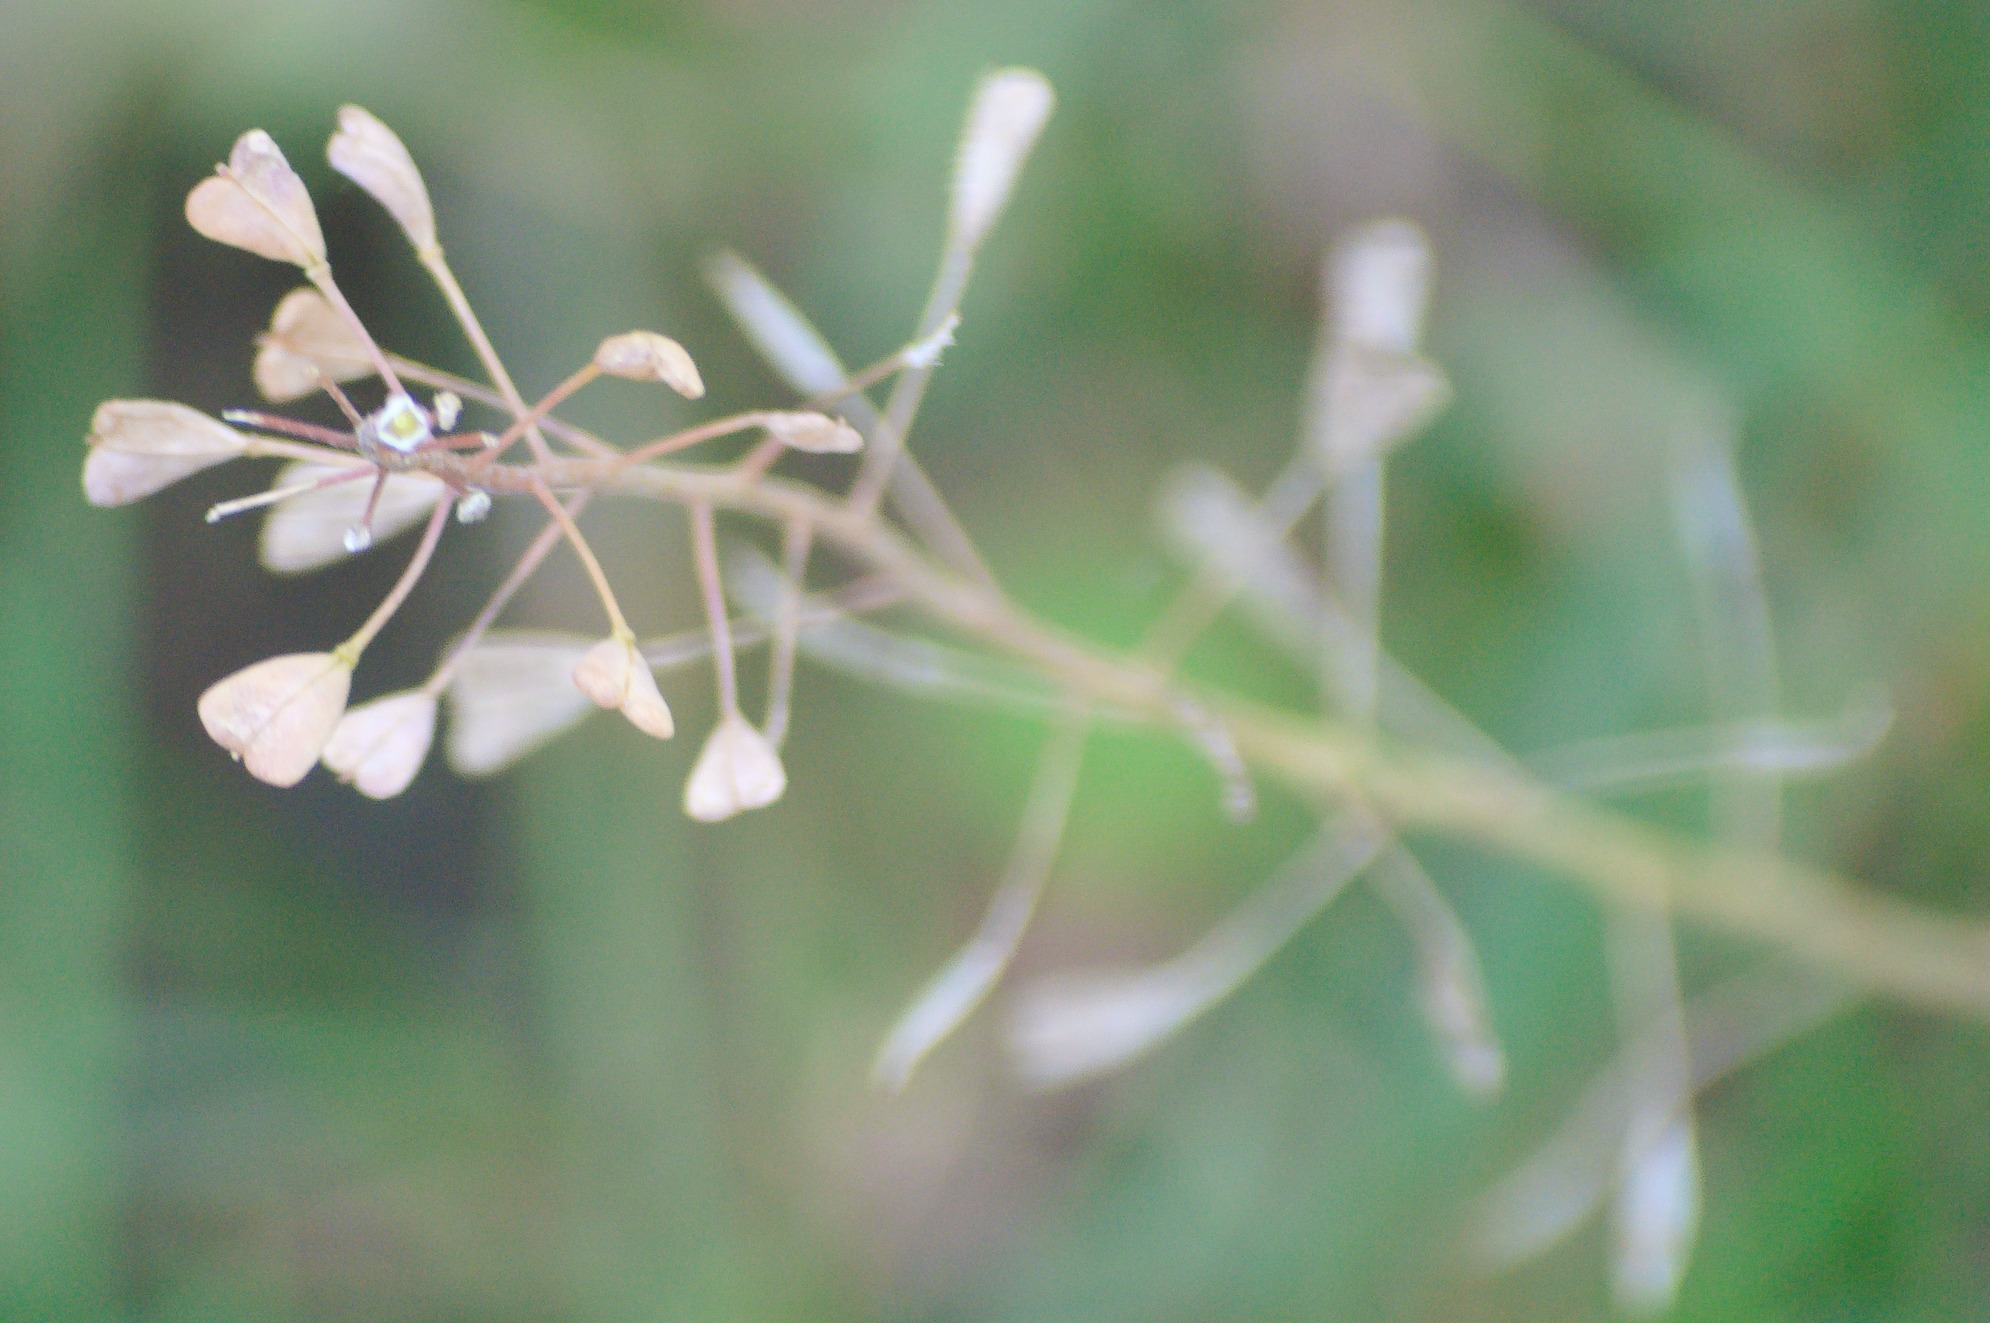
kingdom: Plantae
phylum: Tracheophyta
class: Magnoliopsida
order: Brassicales
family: Brassicaceae
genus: Capsella
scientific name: Capsella bursa-pastoris
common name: Hyrdetaske
